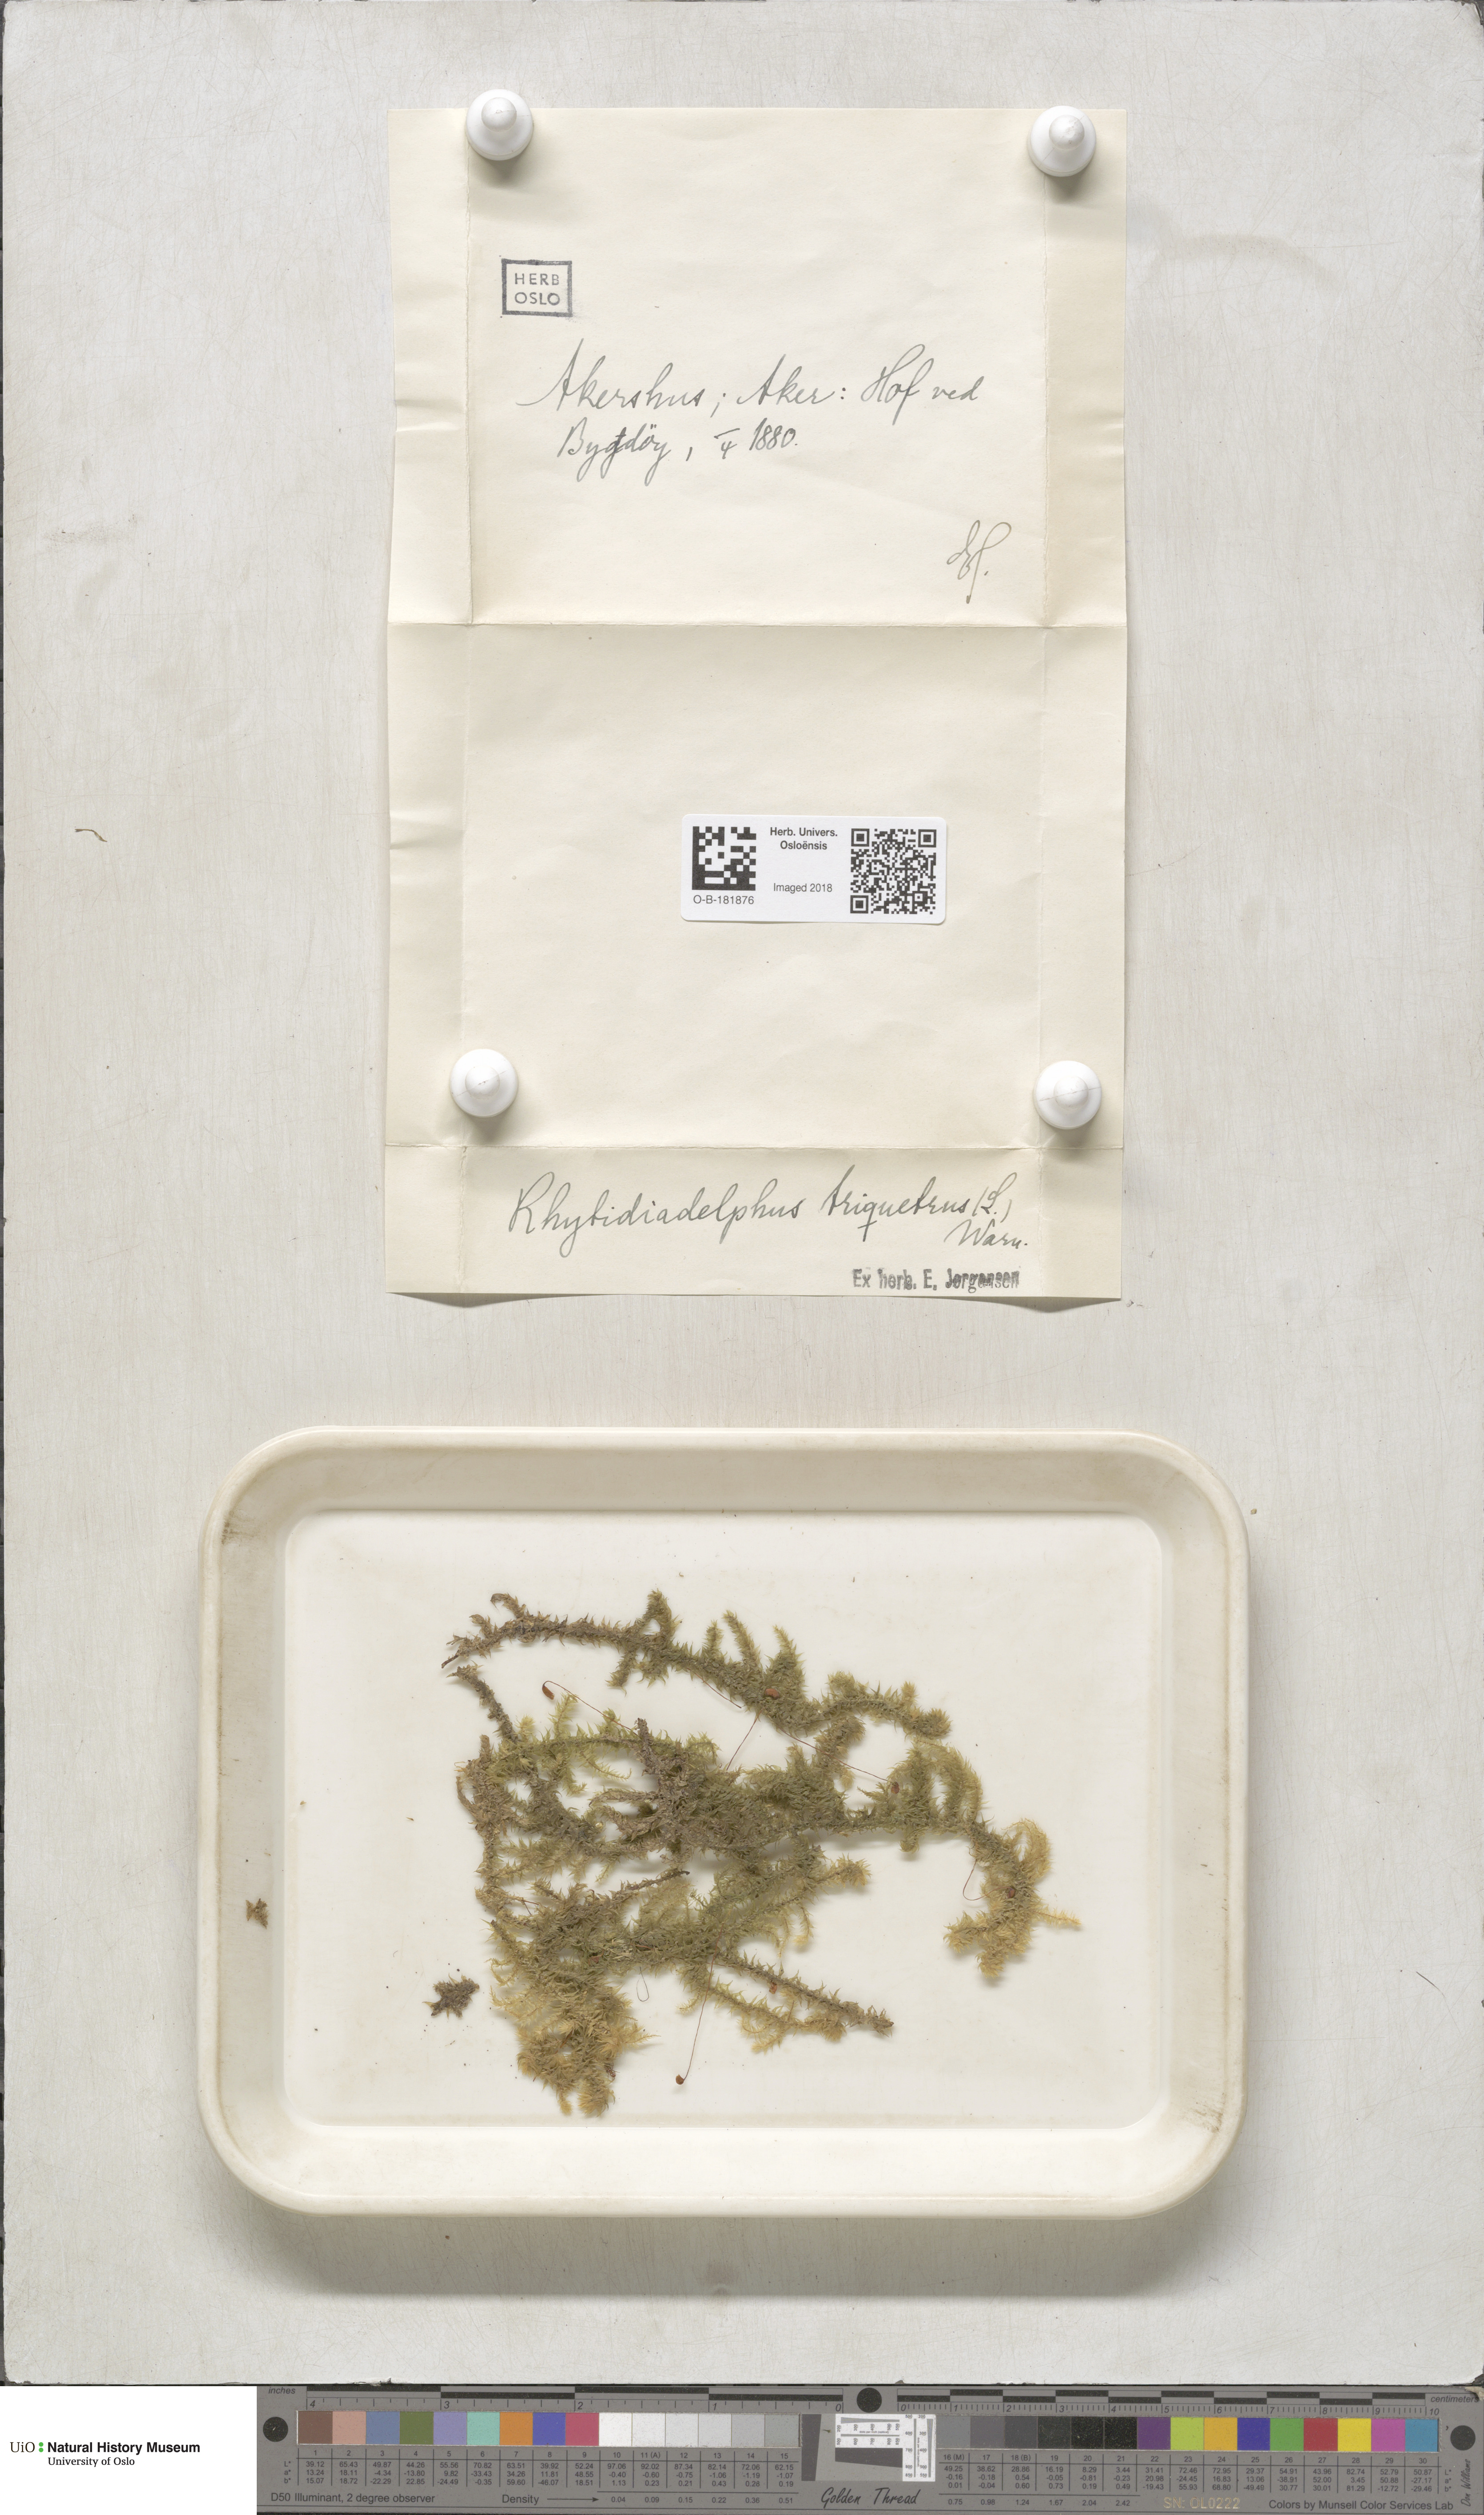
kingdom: Plantae
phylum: Bryophyta
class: Bryopsida
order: Hypnales
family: Hylocomiaceae
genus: Hylocomiadelphus
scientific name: Hylocomiadelphus triquetrus
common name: Rough goose neck moss
